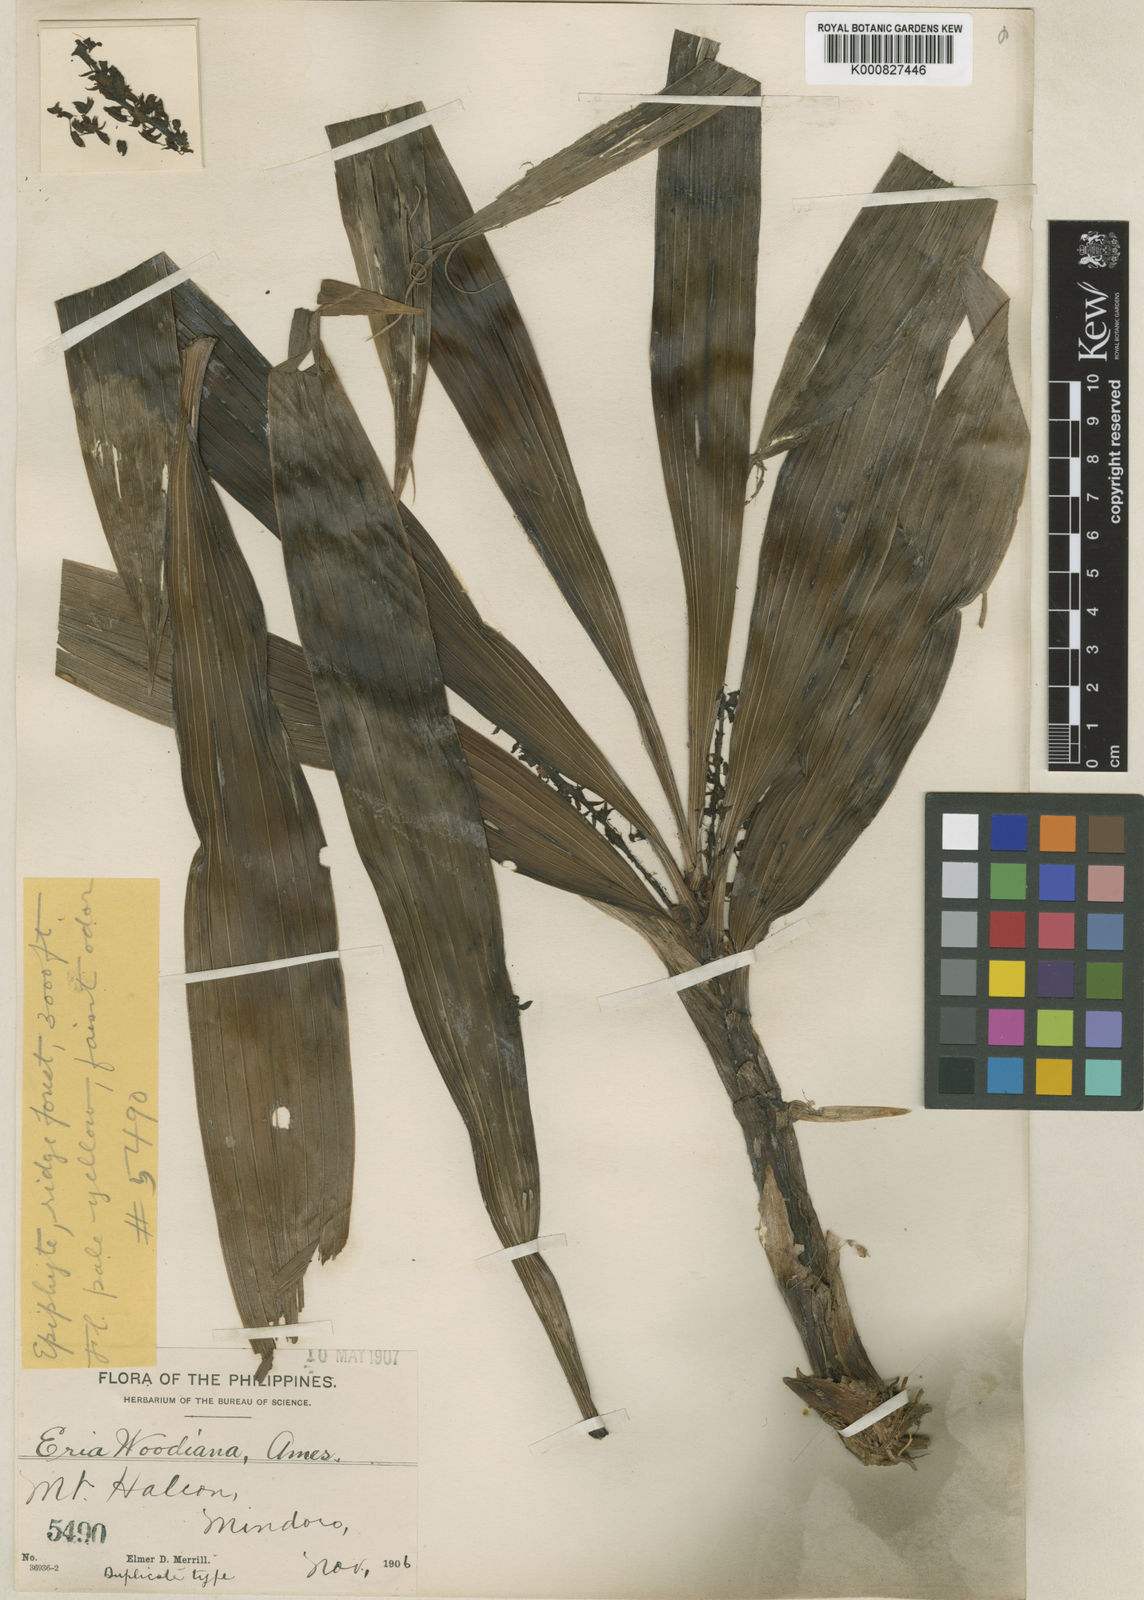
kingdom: Plantae
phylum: Tracheophyta
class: Liliopsida
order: Asparagales
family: Orchidaceae
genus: Pinalia
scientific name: Pinalia woodiana
